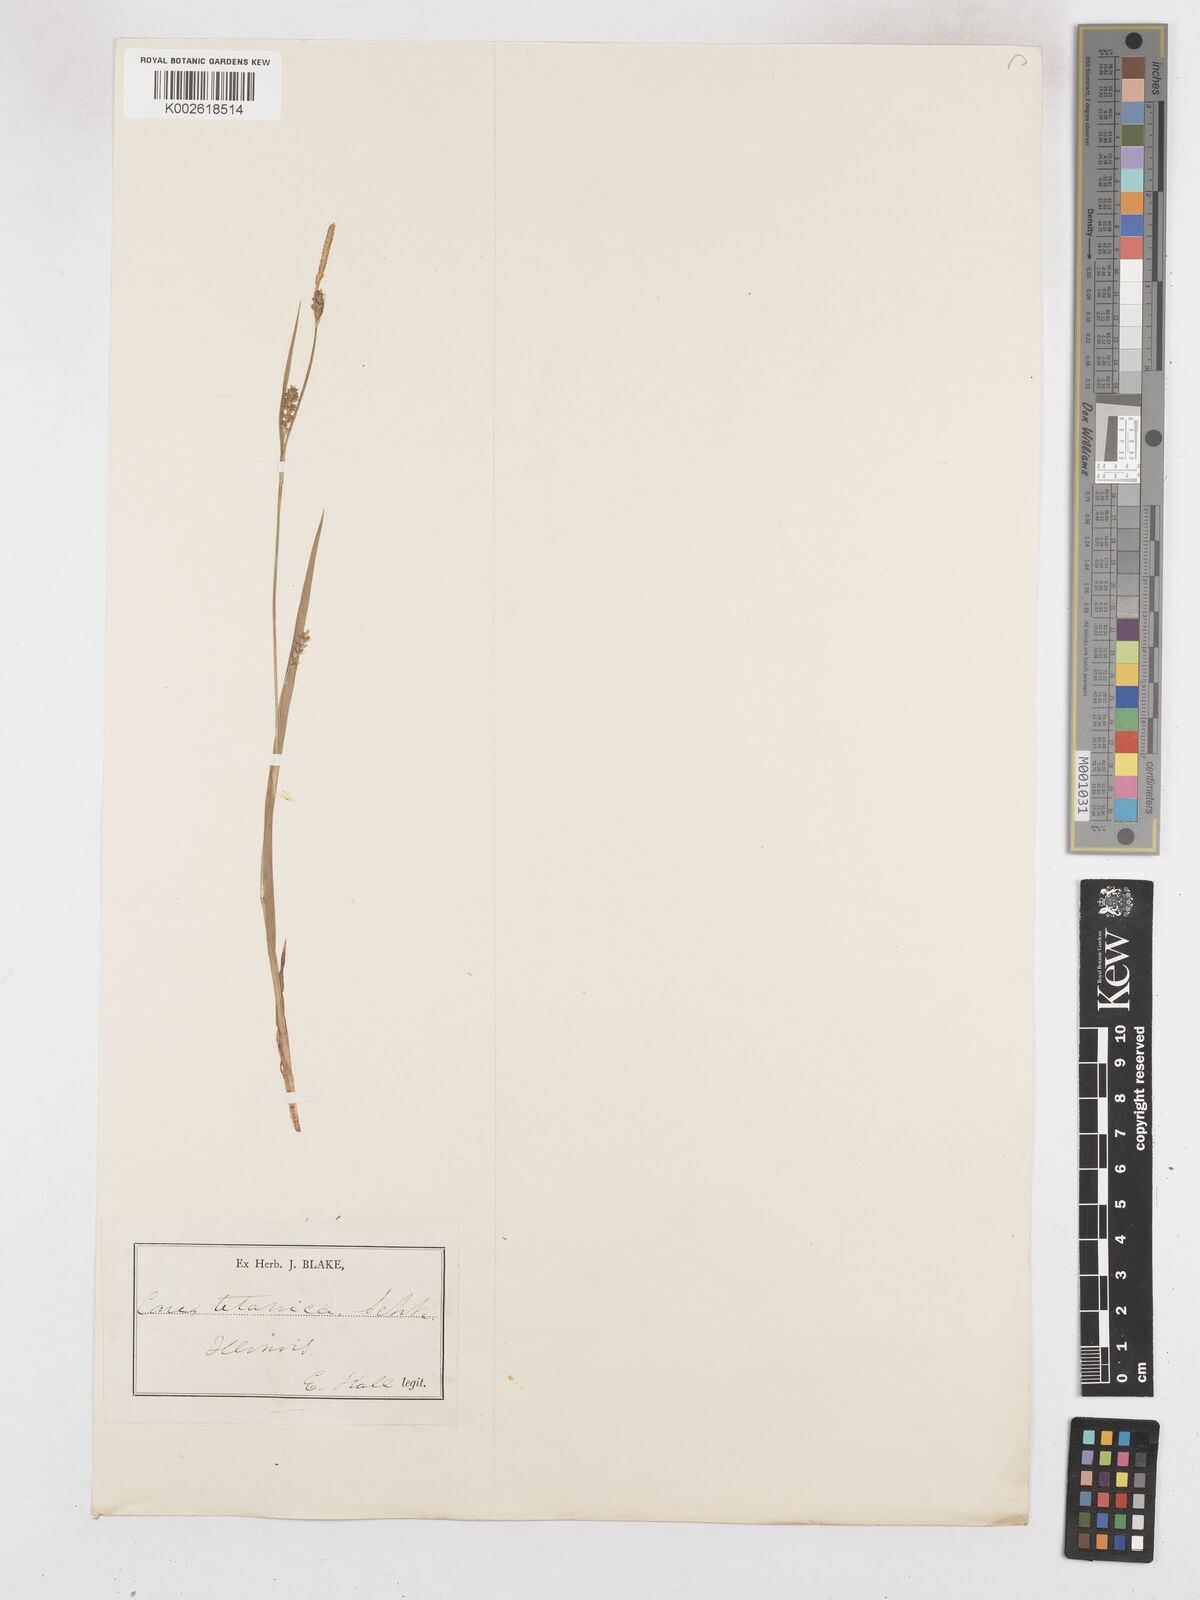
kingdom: Plantae
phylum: Tracheophyta
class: Liliopsida
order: Poales
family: Cyperaceae
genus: Carex
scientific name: Carex tetanica
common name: Rigid sedge
